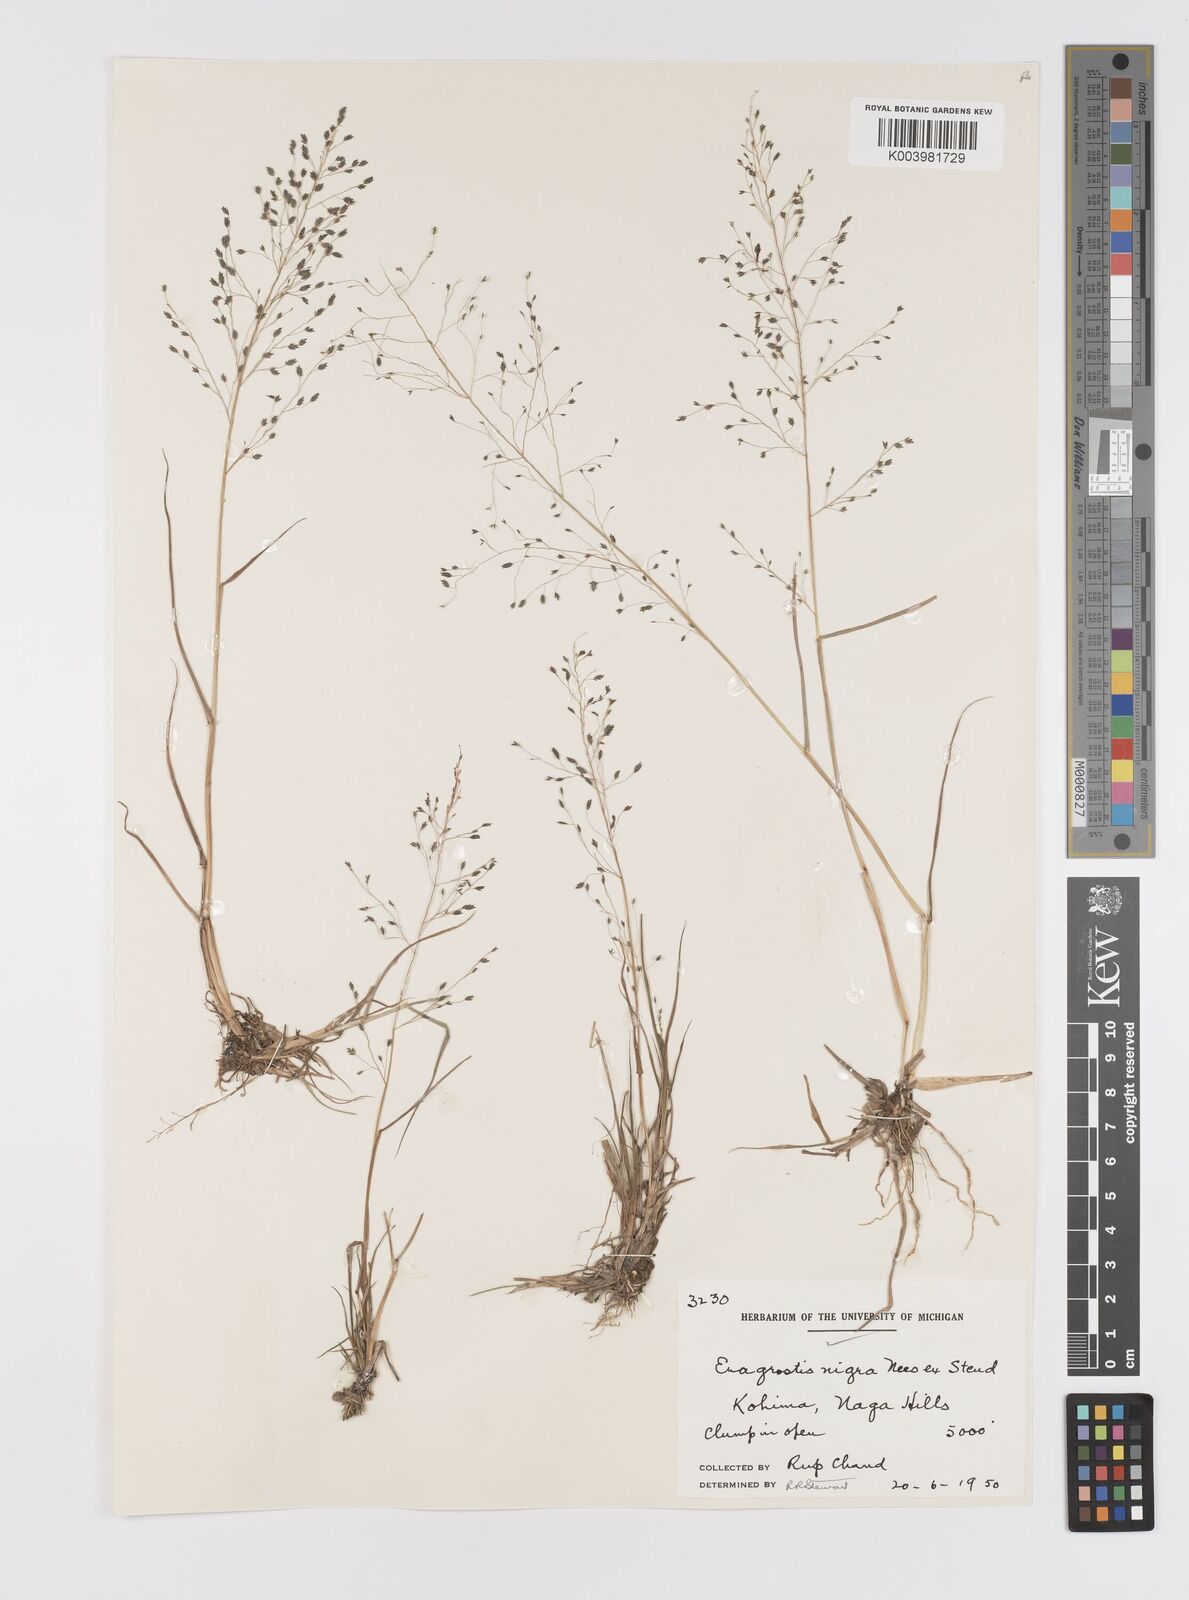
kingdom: Plantae
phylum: Tracheophyta
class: Liliopsida
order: Poales
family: Poaceae
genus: Eragrostis
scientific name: Eragrostis nigra
